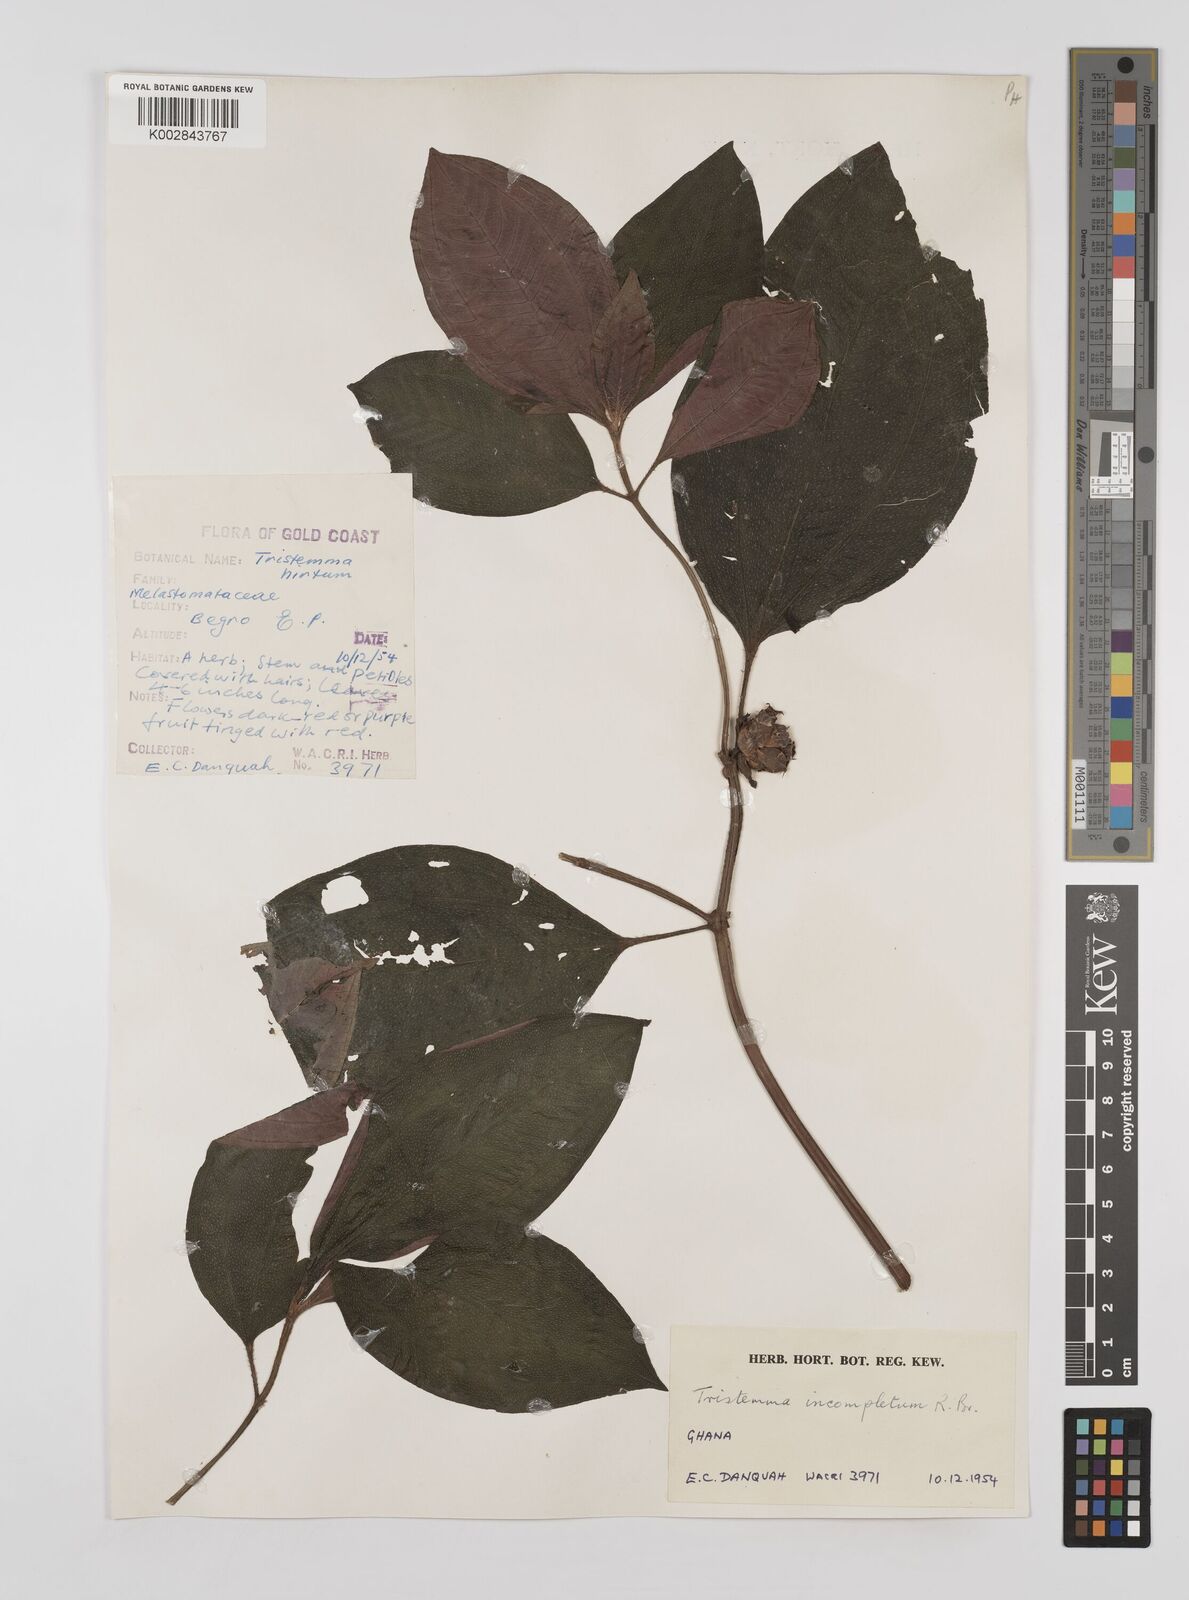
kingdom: Plantae
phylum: Tracheophyta
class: Magnoliopsida
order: Myrtales
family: Melastomataceae
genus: Tristemma
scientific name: Tristemma mauritianum
